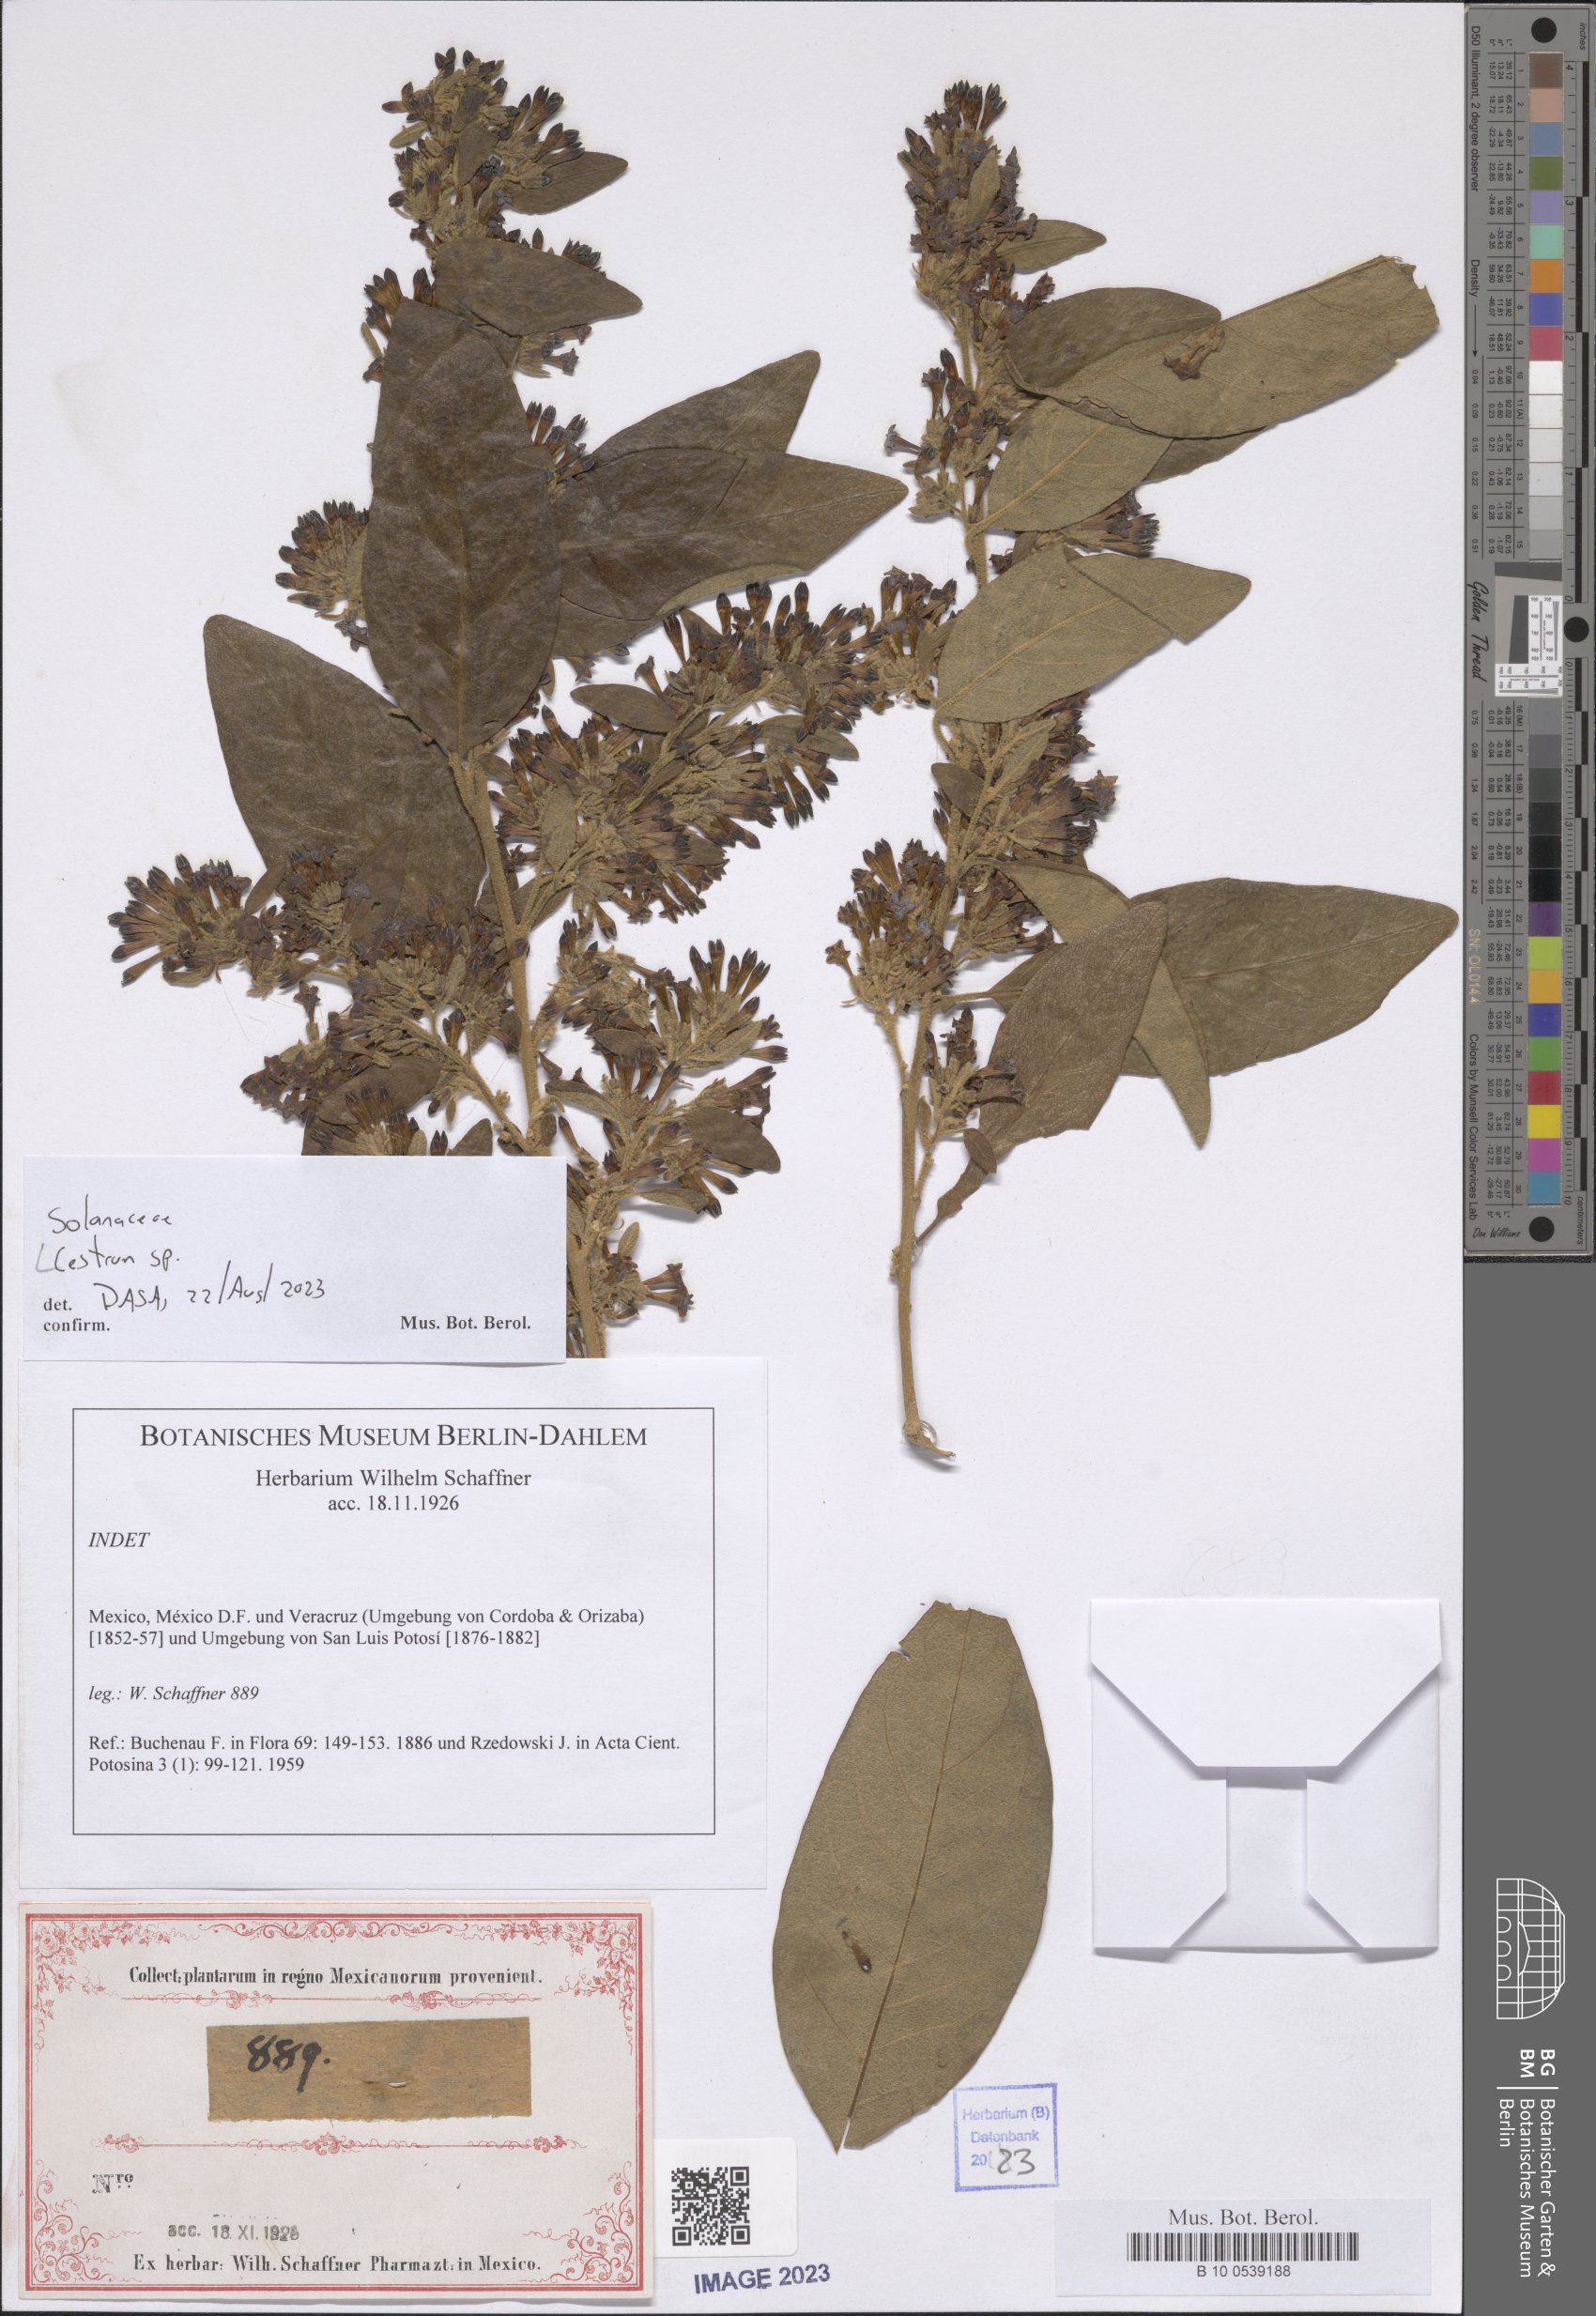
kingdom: Plantae
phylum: Tracheophyta
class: Magnoliopsida
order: Solanales
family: Solanaceae
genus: Cestrum
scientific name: Cestrum
